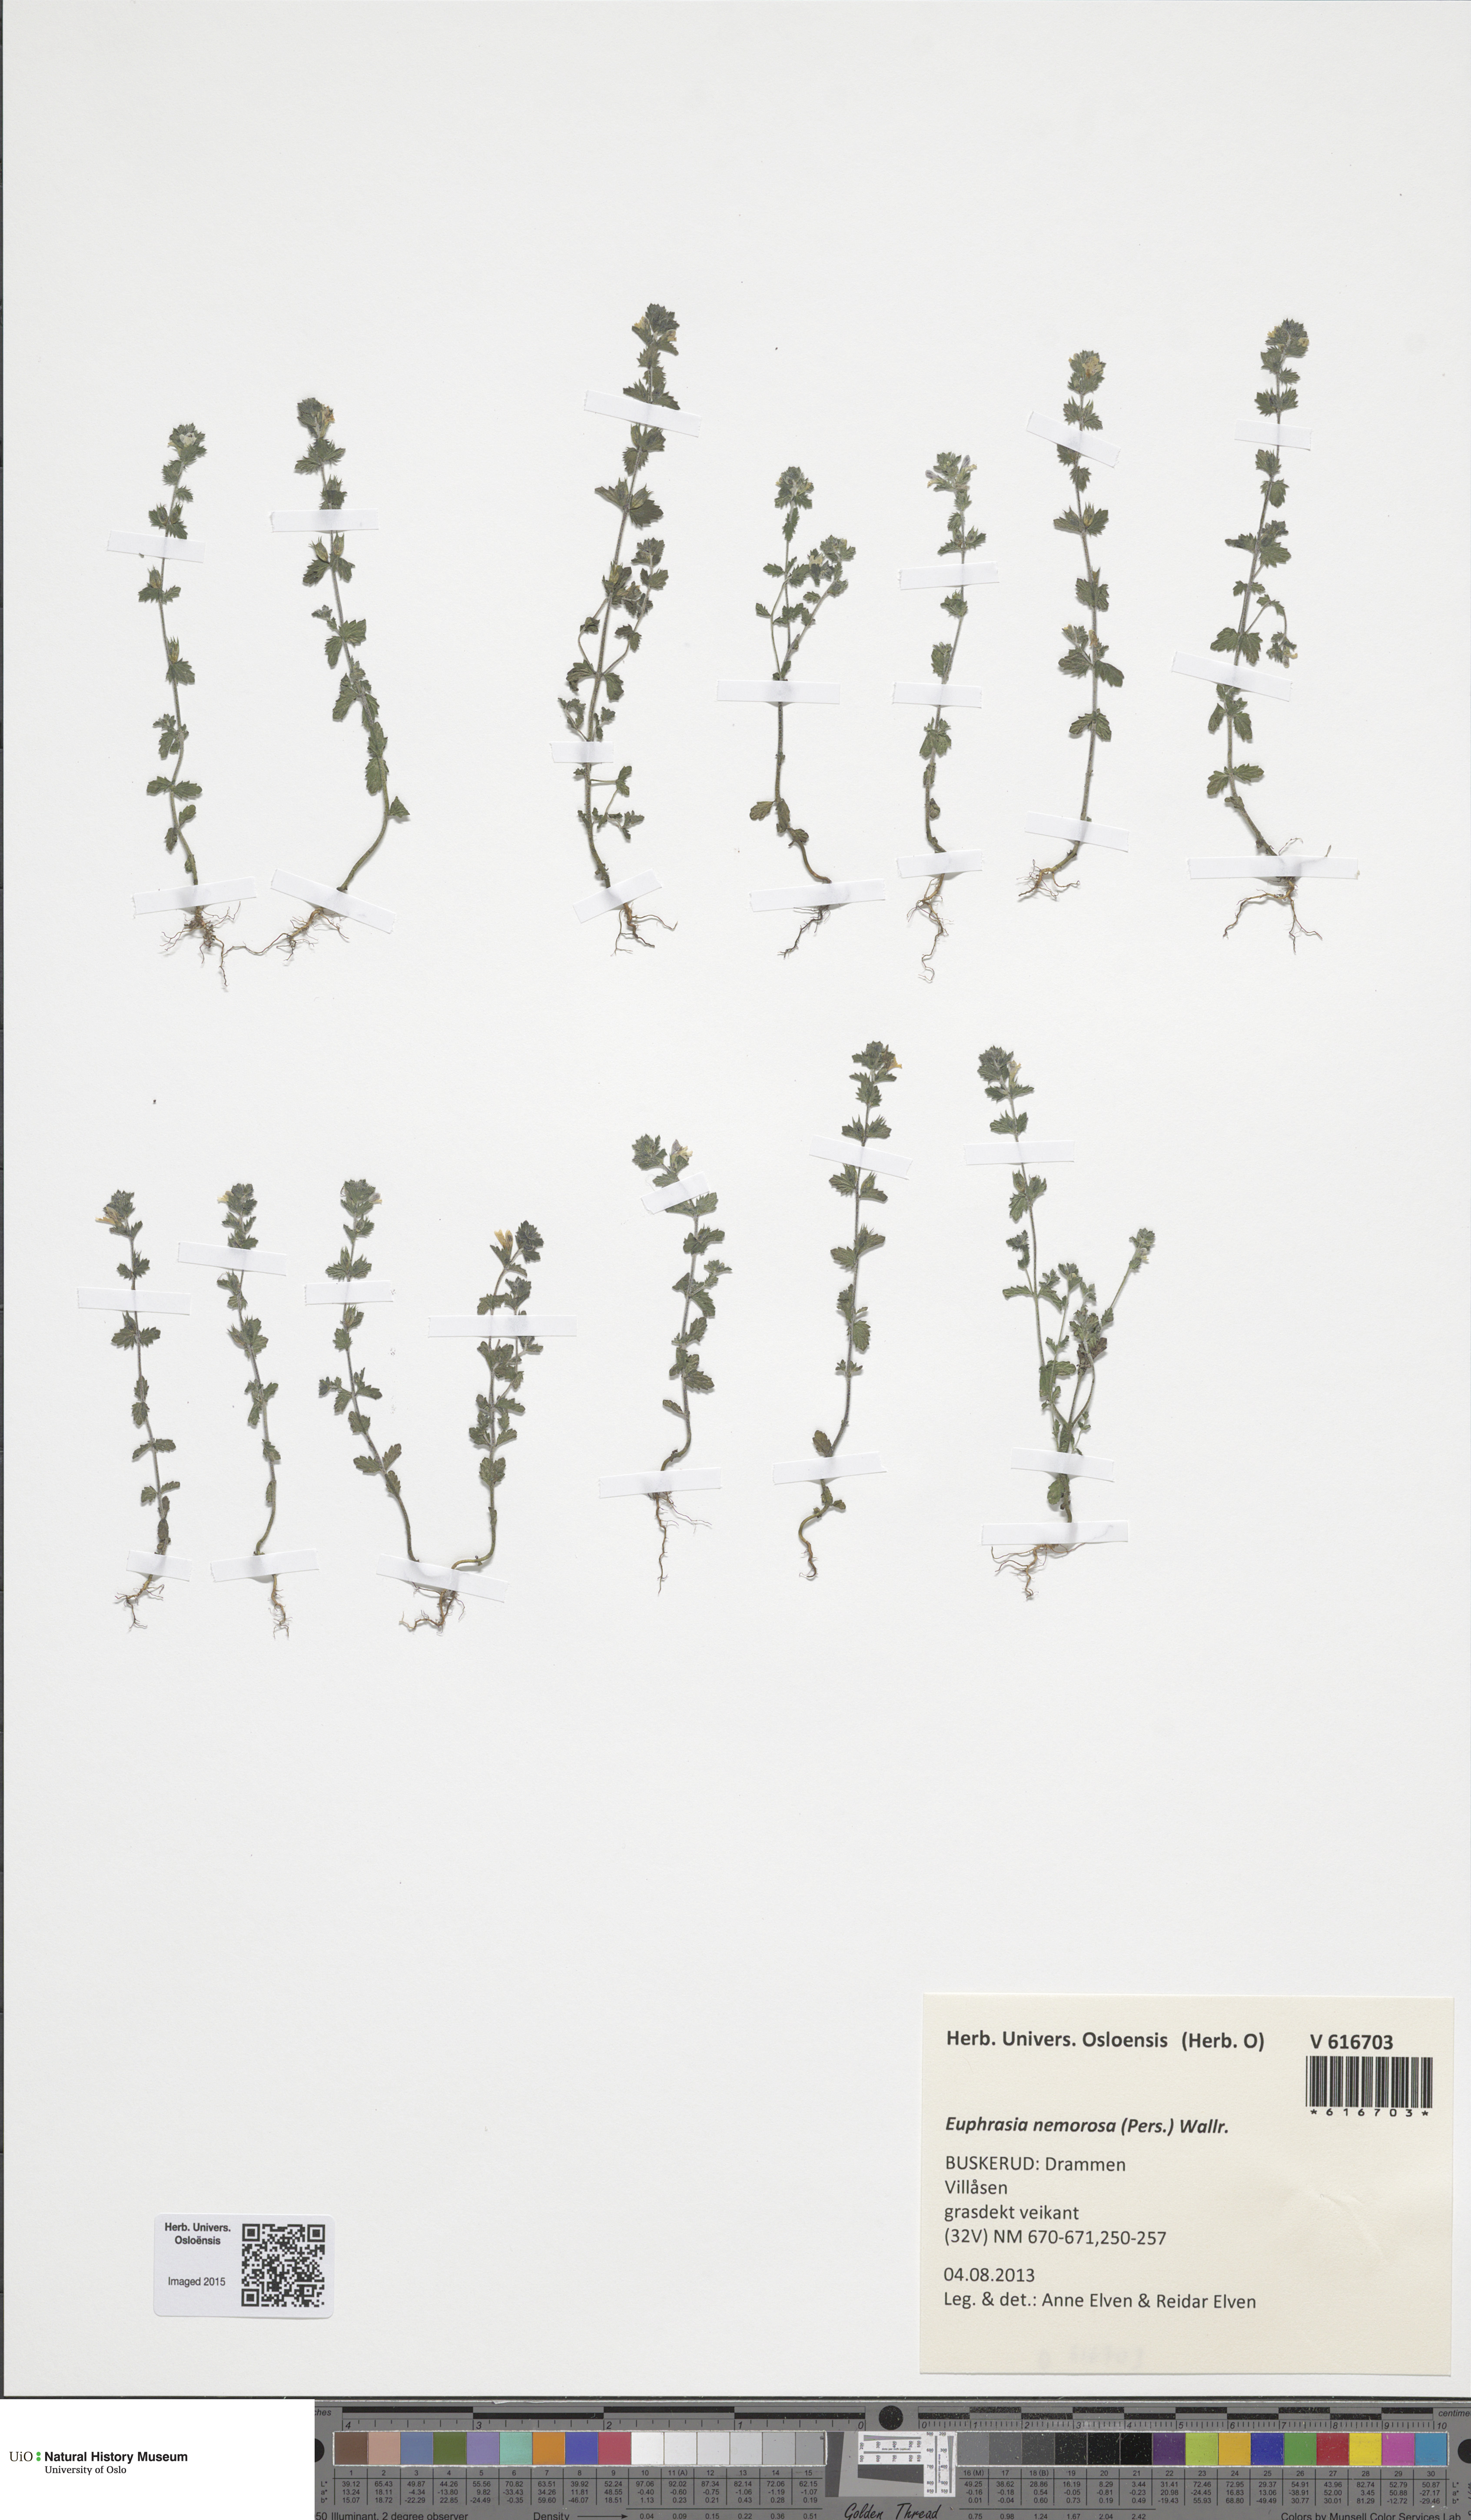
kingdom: Plantae
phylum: Tracheophyta
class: Magnoliopsida
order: Lamiales
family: Orobanchaceae
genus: Euphrasia
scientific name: Euphrasia nemorosa
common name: Common eyebright
